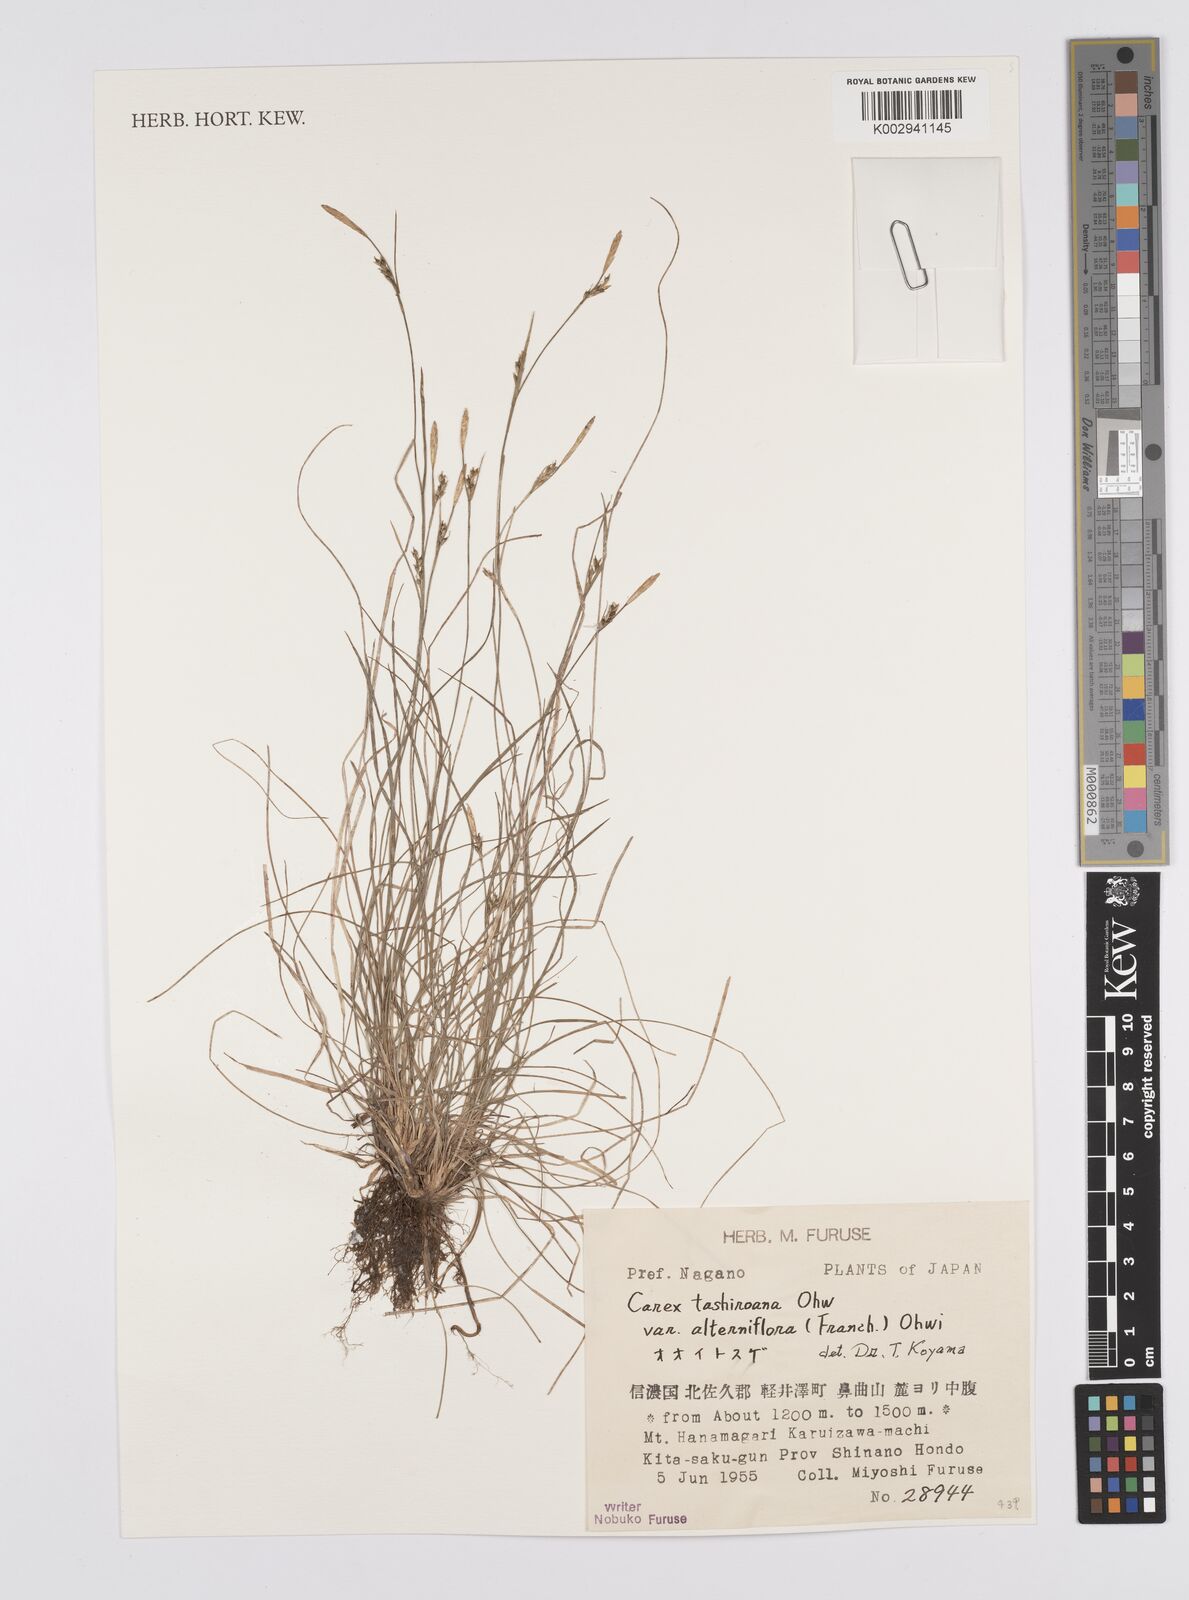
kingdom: Plantae
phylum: Tracheophyta
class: Liliopsida
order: Poales
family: Cyperaceae
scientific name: Cyperaceae
